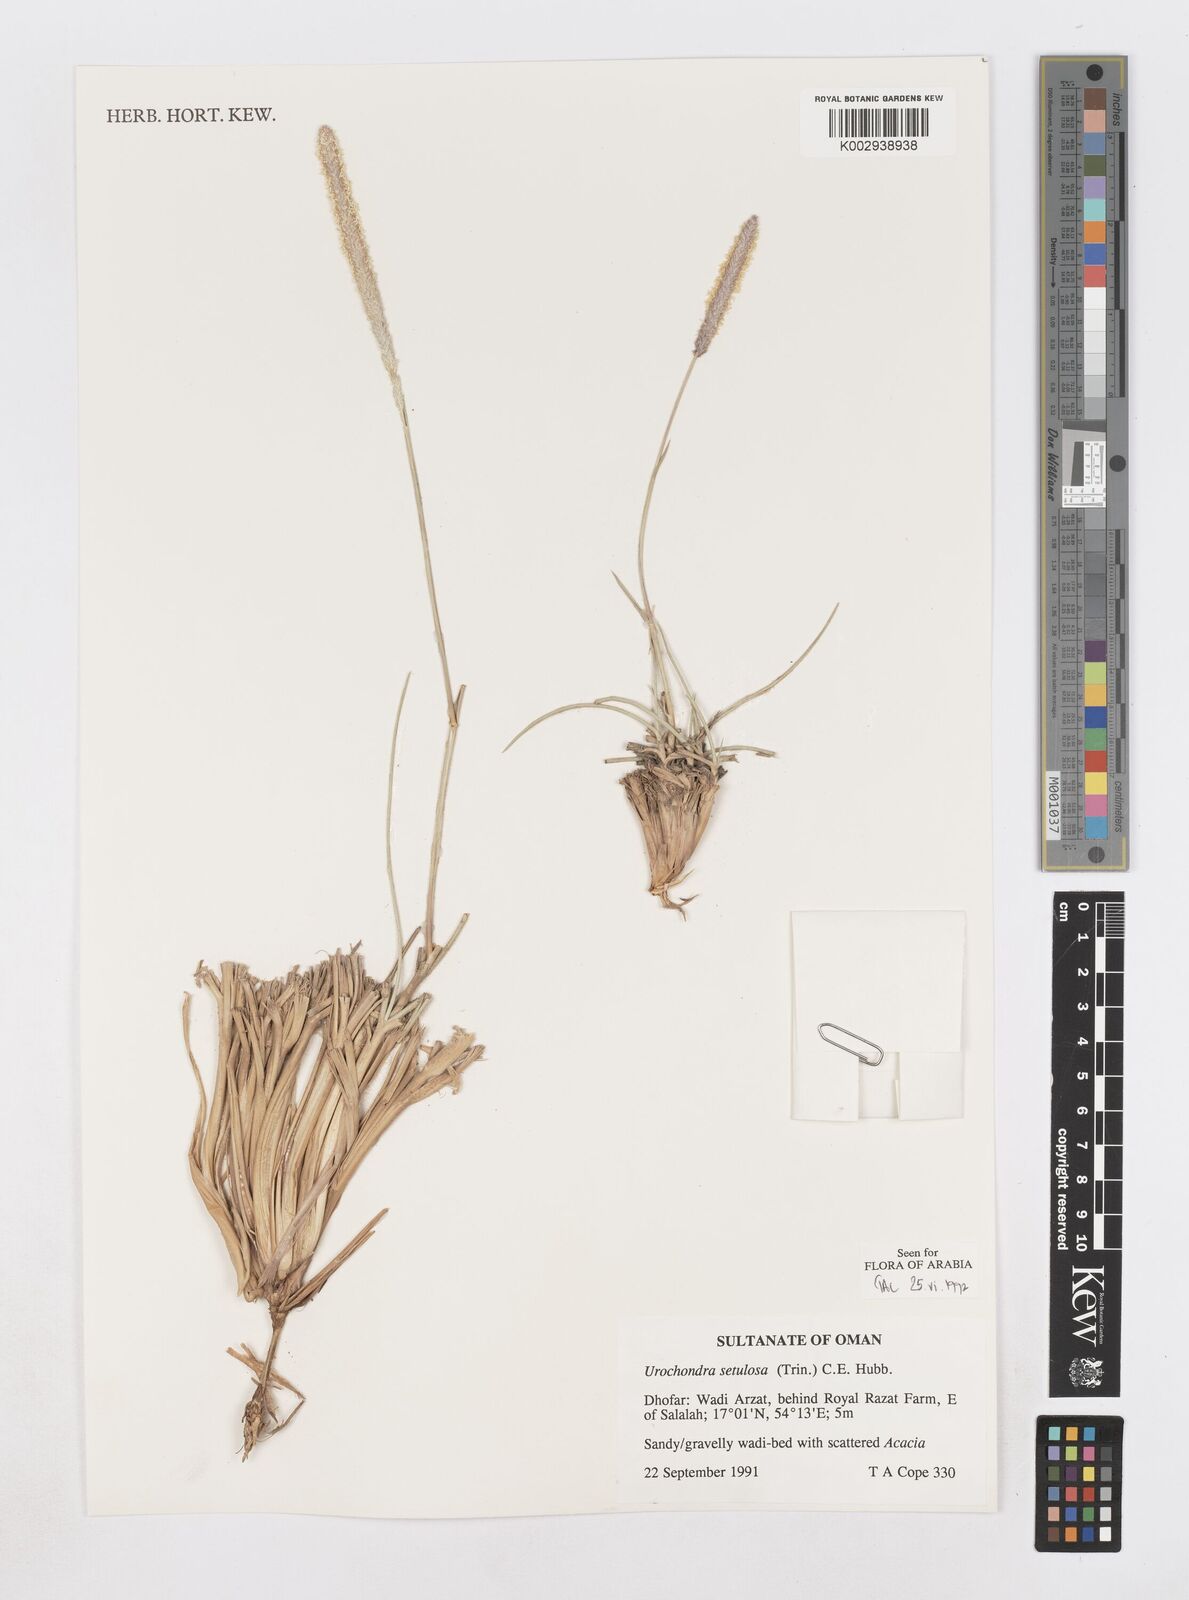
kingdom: Plantae
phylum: Tracheophyta
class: Liliopsida
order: Poales
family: Poaceae
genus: Urochondra
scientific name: Urochondra setulosa
